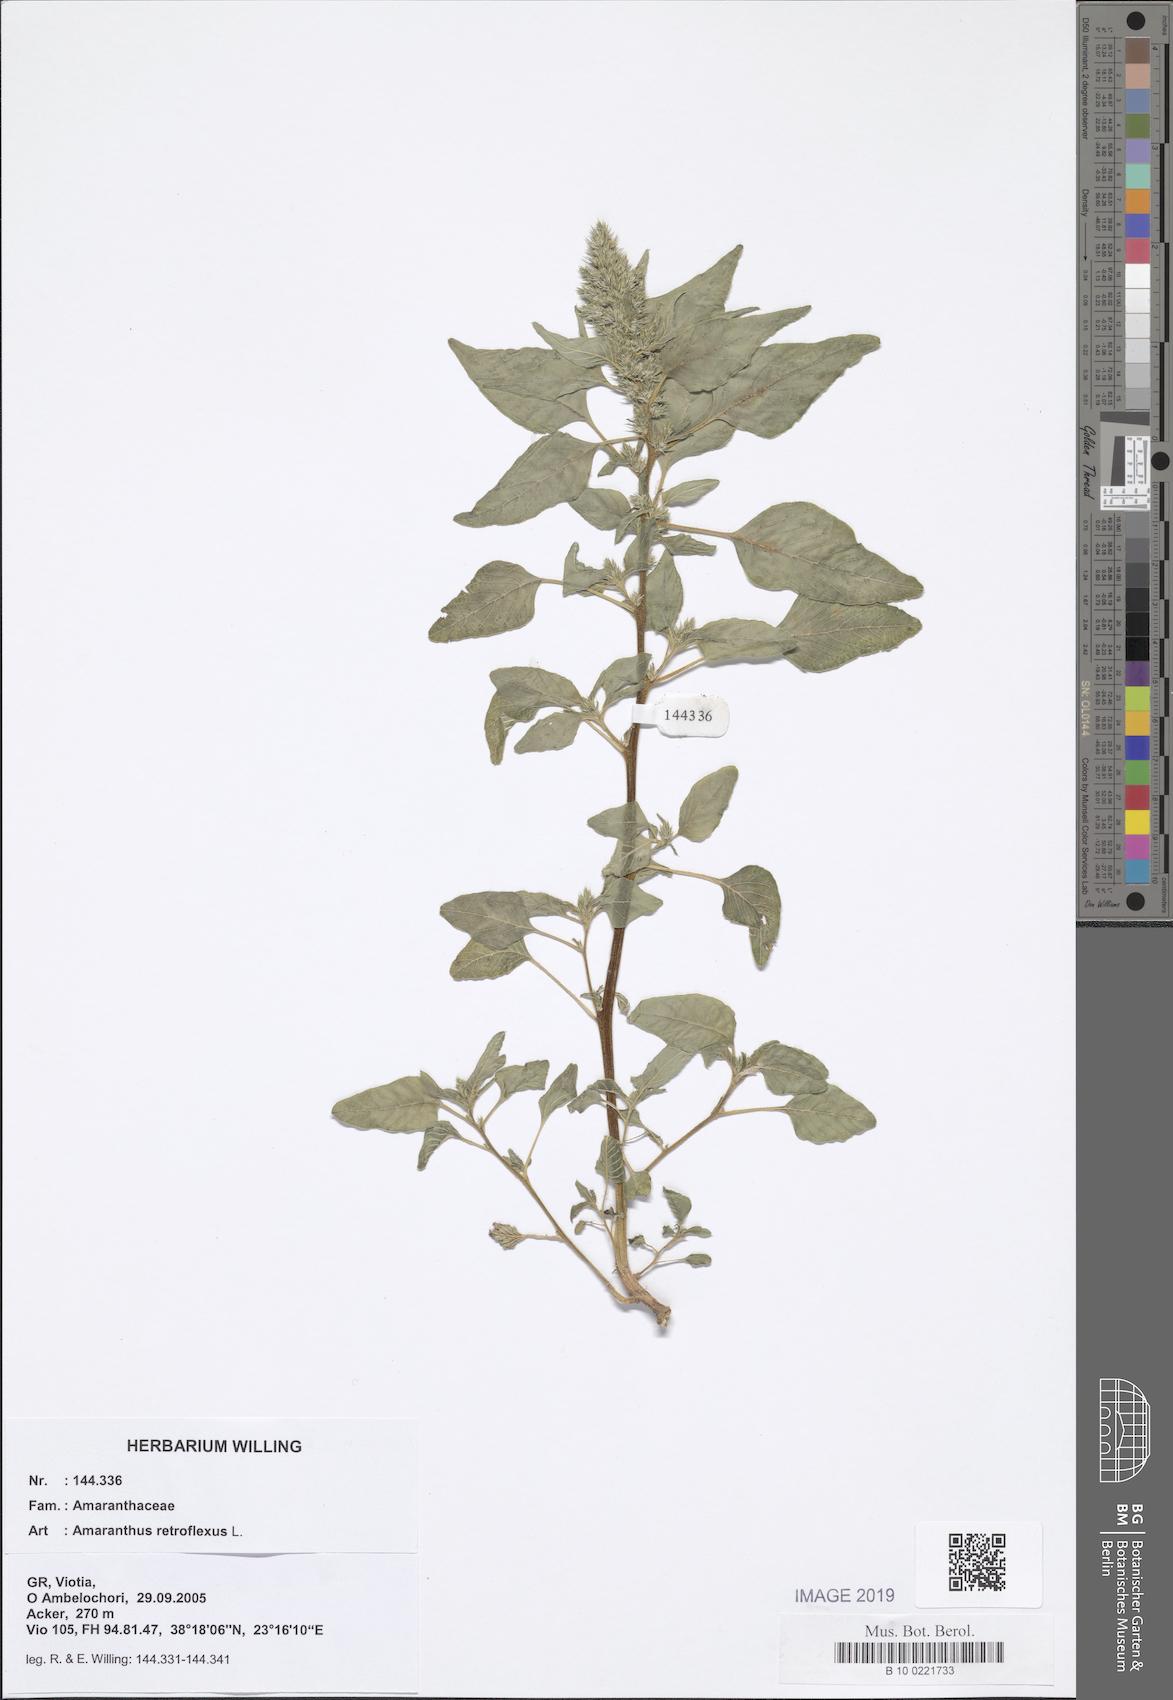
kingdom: Plantae
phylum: Tracheophyta
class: Magnoliopsida
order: Caryophyllales
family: Amaranthaceae
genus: Amaranthus
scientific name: Amaranthus retroflexus
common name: Redroot amaranth
